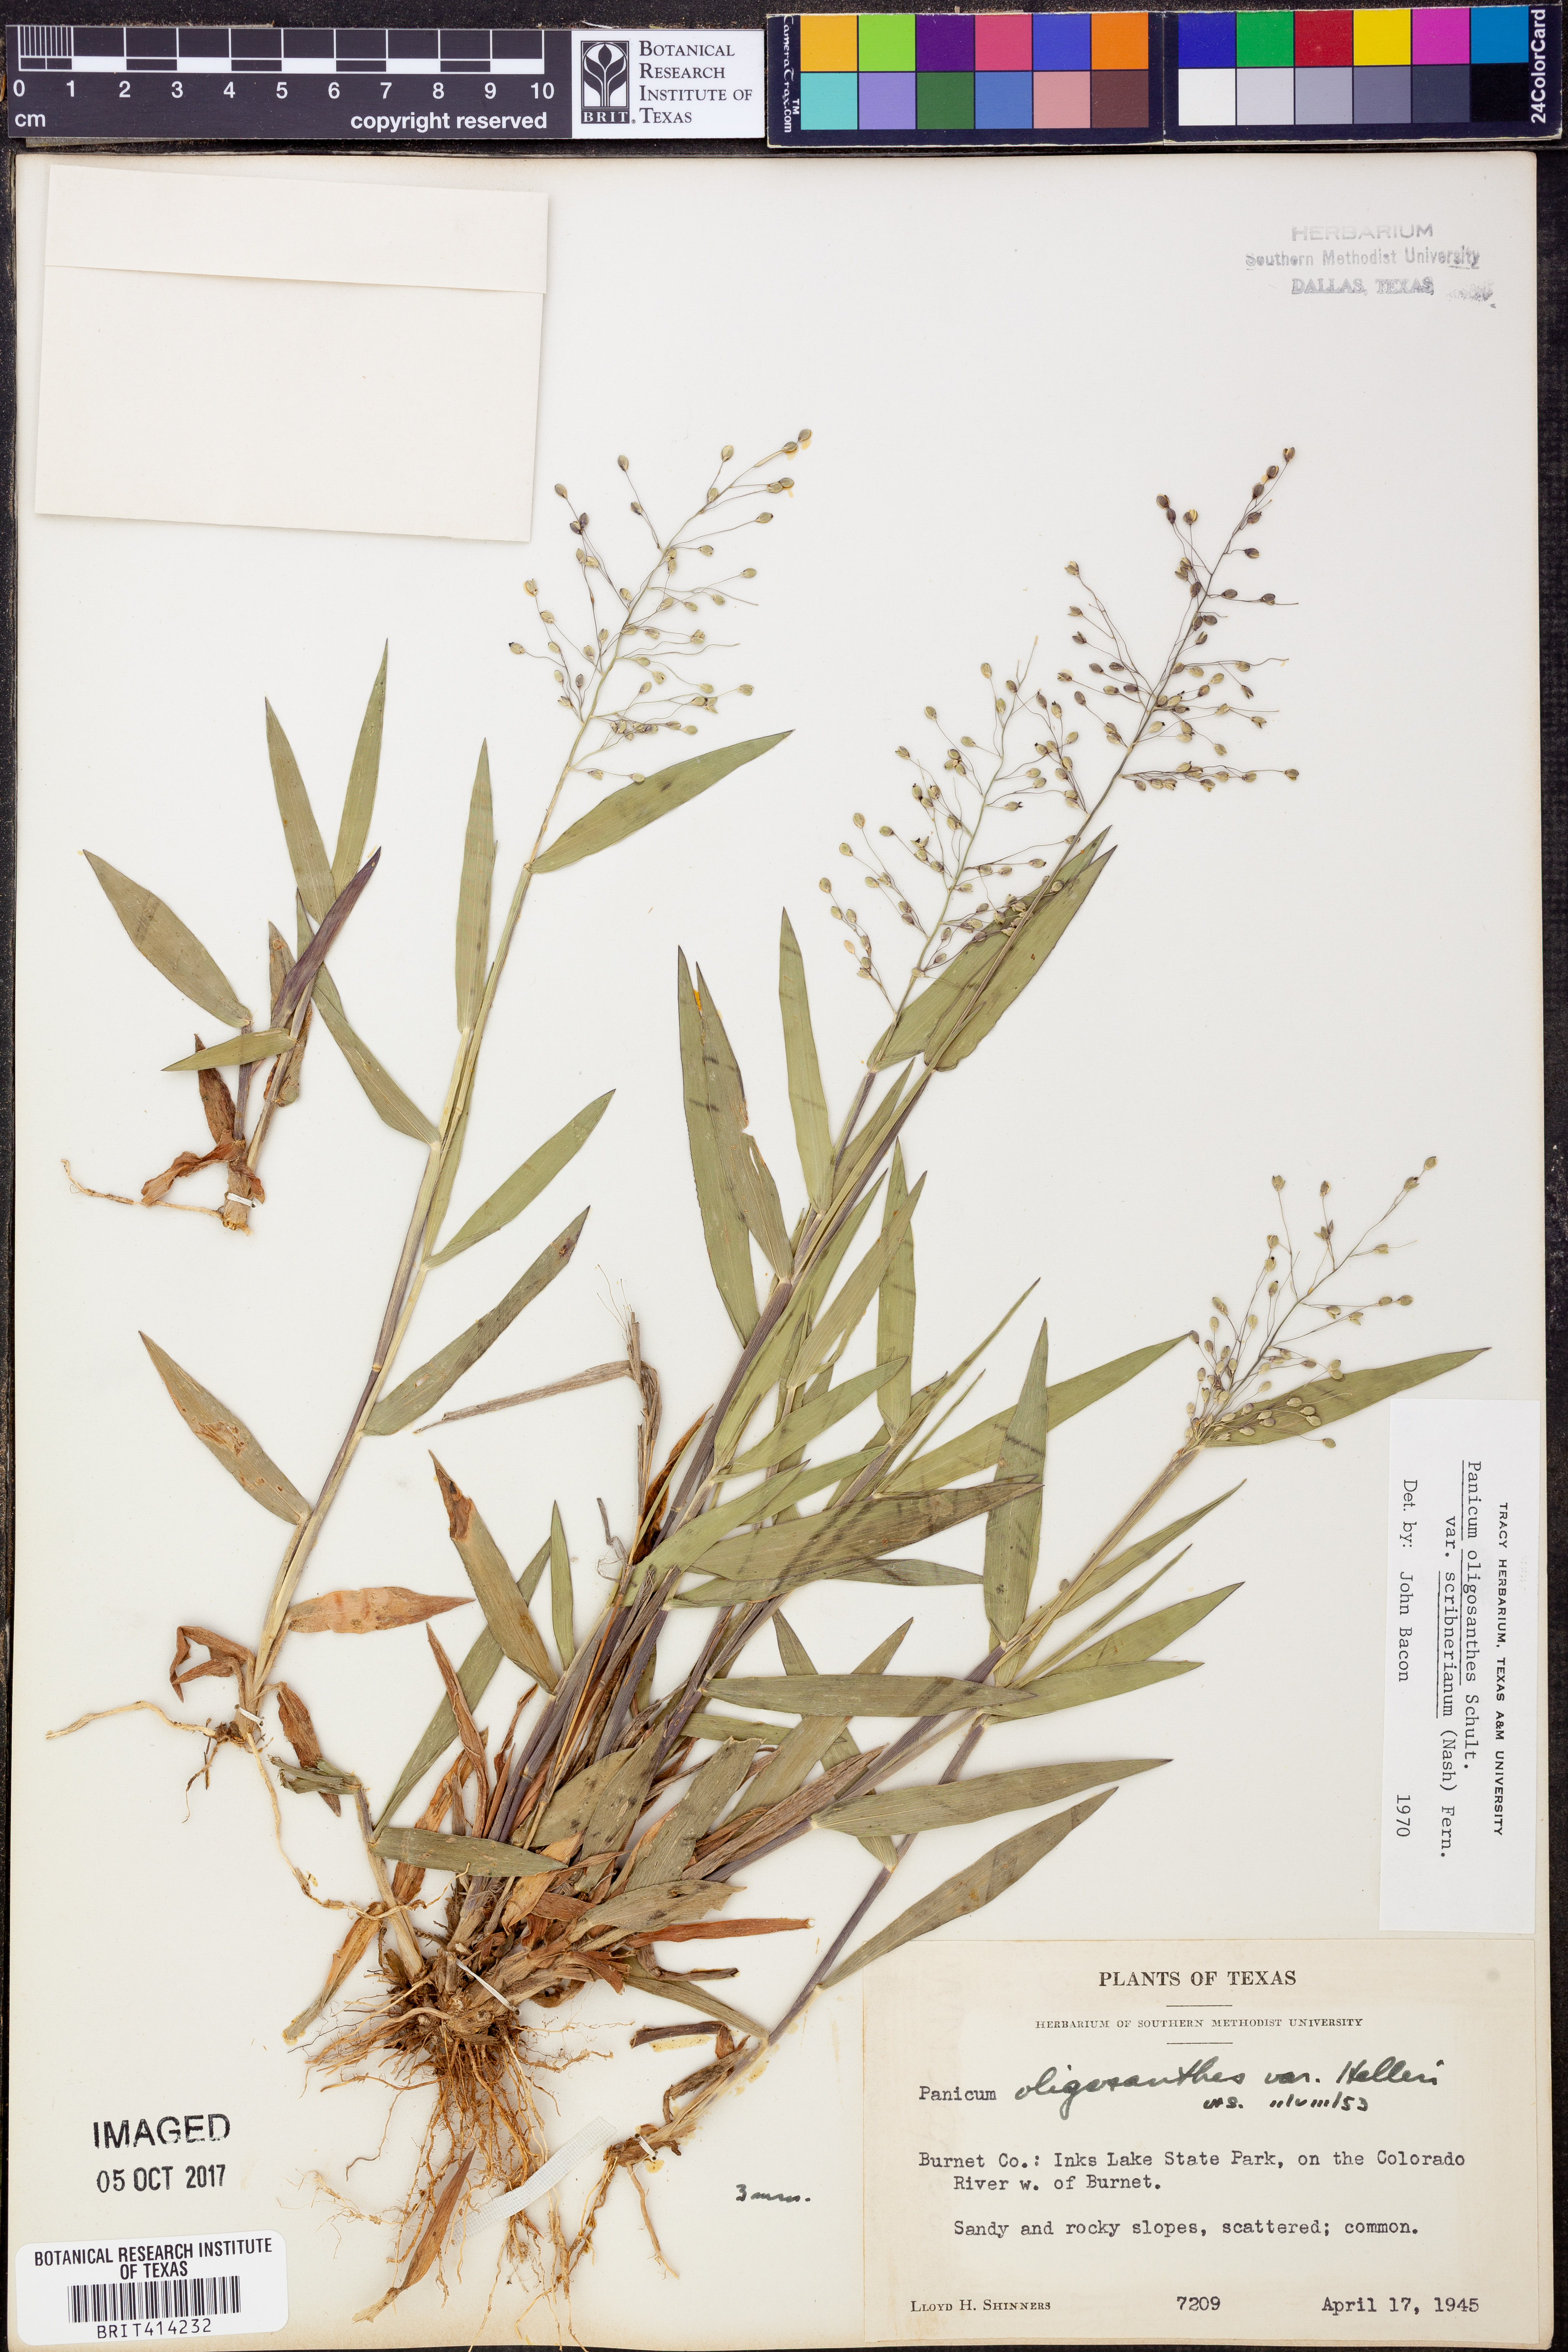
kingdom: Plantae
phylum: Tracheophyta
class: Liliopsida
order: Poales
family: Poaceae
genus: Dichanthelium
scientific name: Dichanthelium scribnerianum
